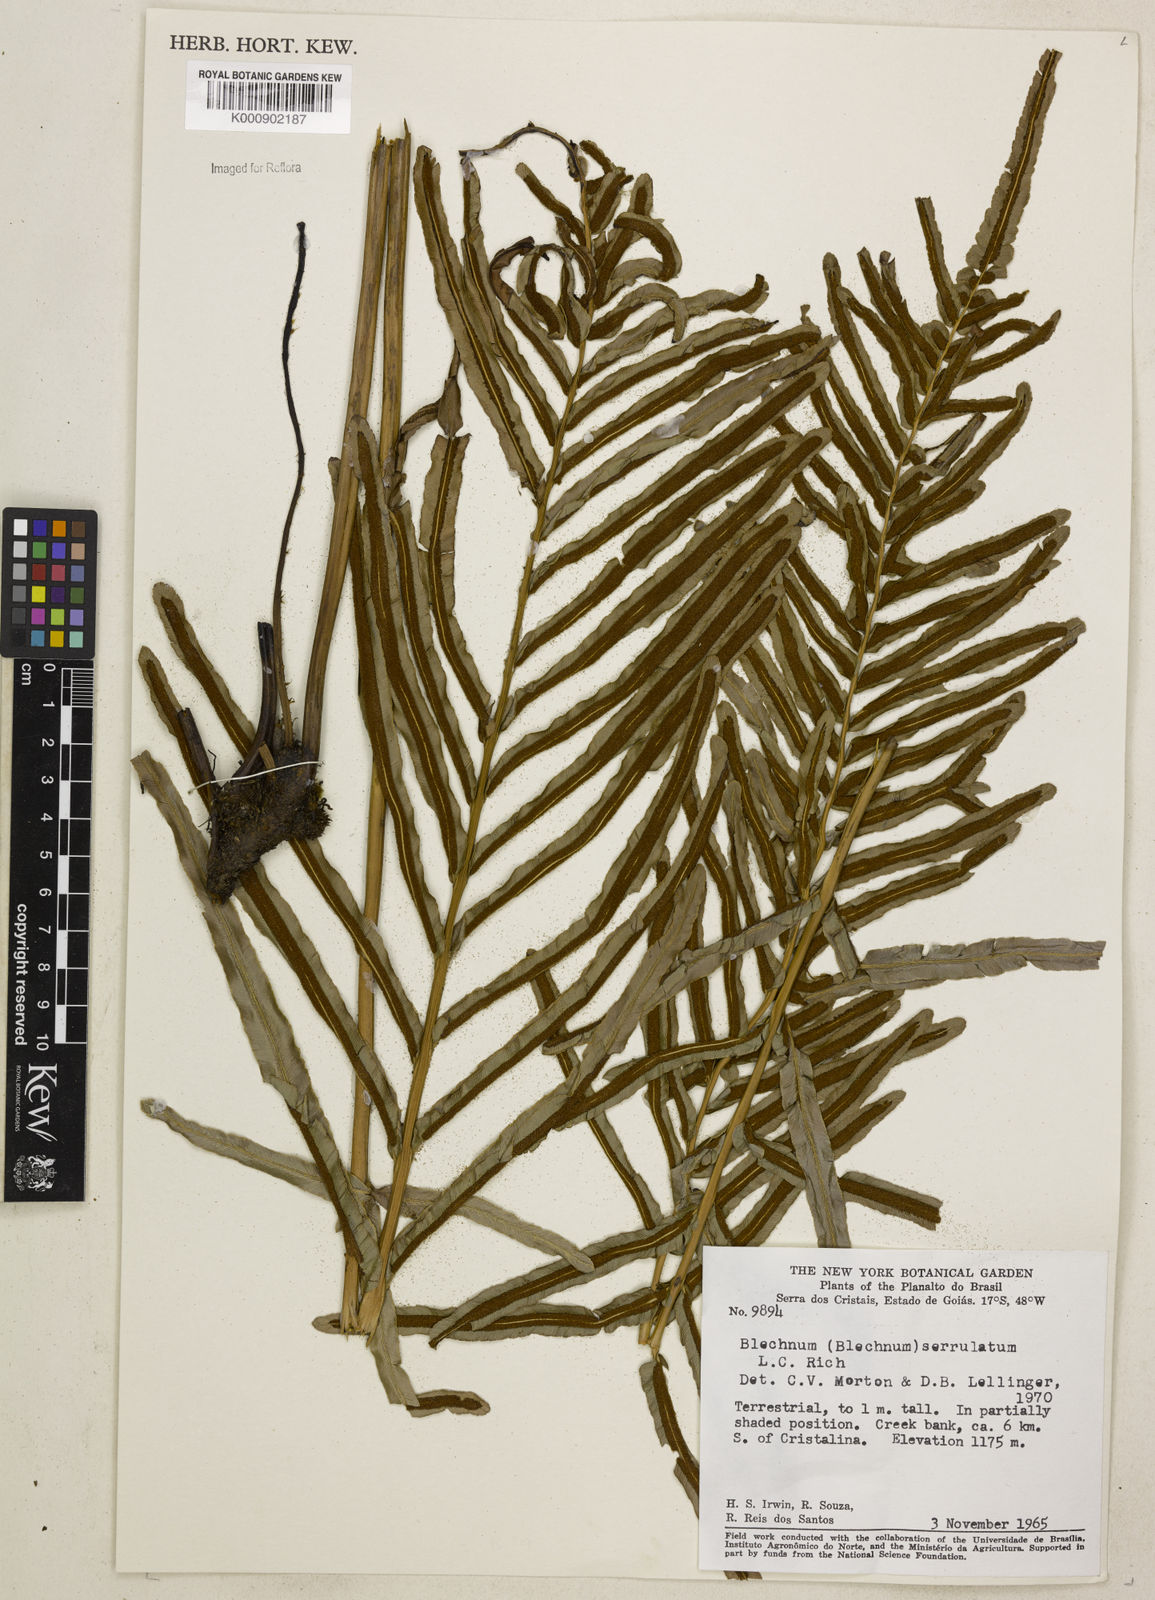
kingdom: Plantae
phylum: Tracheophyta
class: Polypodiopsida
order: Polypodiales
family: Blechnaceae
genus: Telmatoblechnum
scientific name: Telmatoblechnum serrulatum
